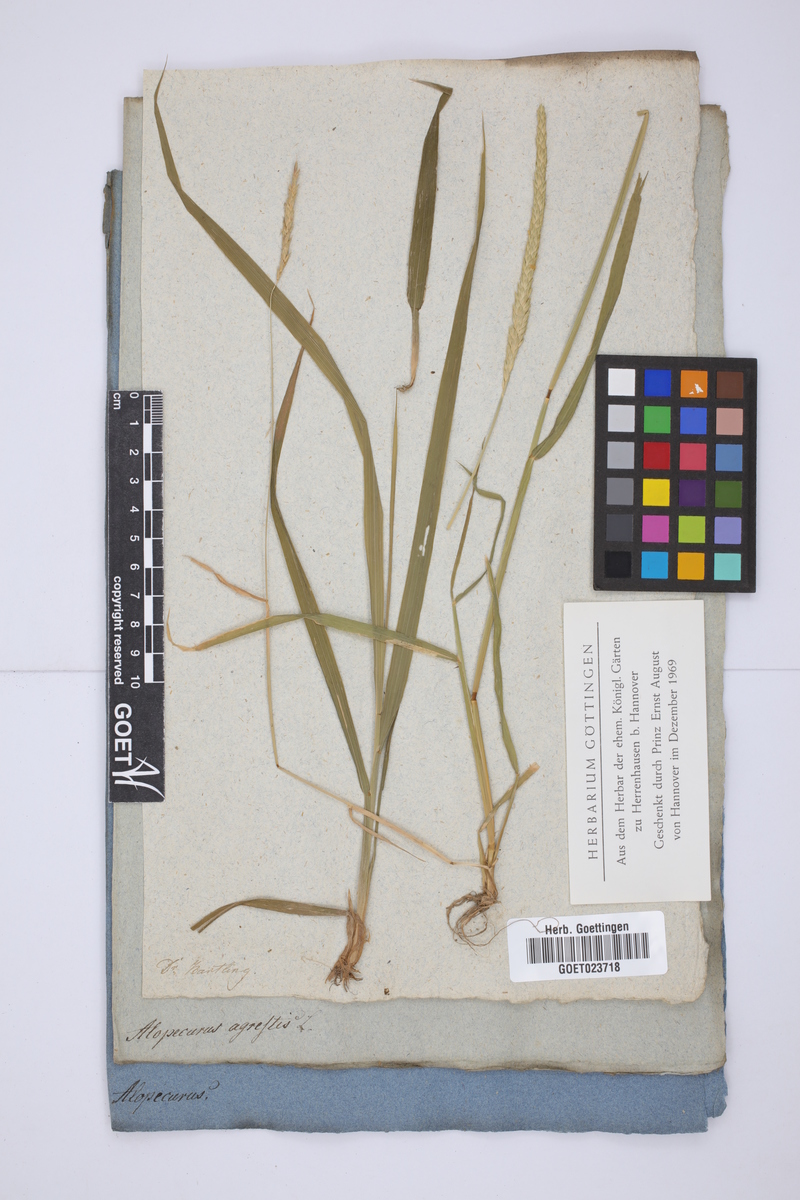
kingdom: Plantae
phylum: Tracheophyta
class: Liliopsida
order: Poales
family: Poaceae
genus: Alopecurus
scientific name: Alopecurus myosuroides
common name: Black-grass
